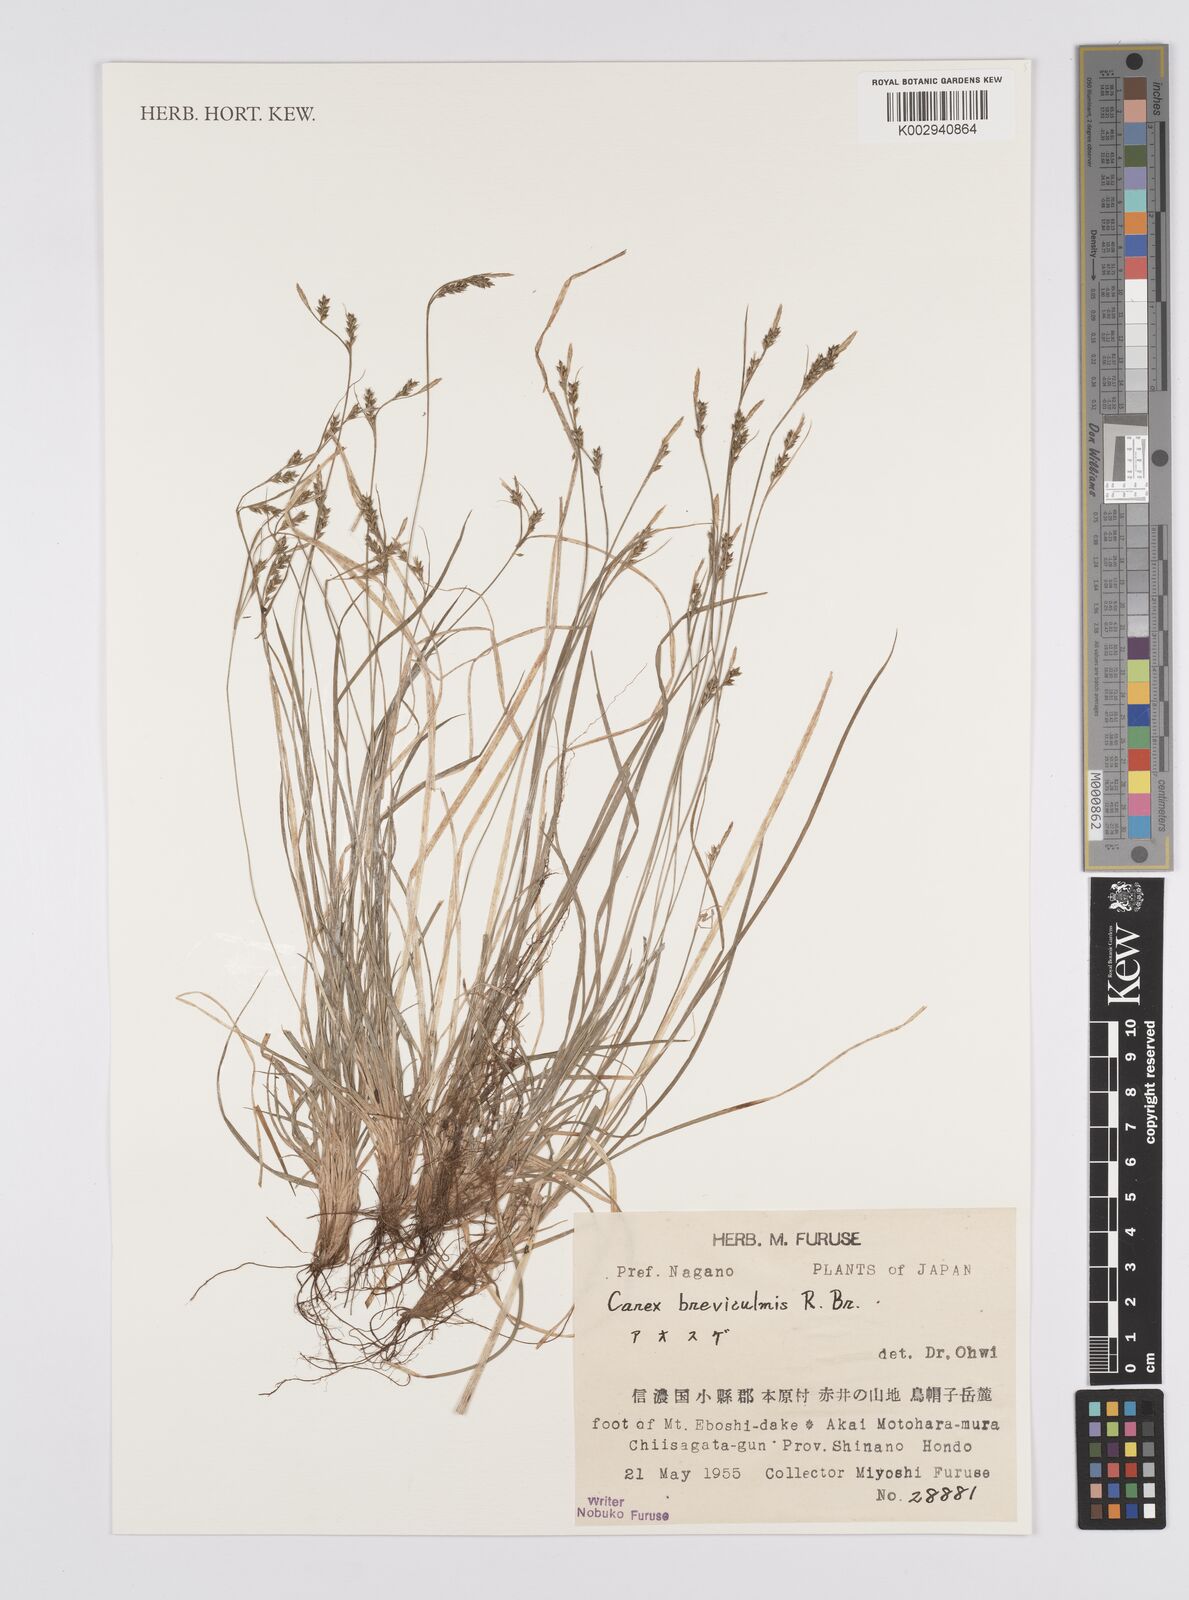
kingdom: Plantae
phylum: Tracheophyta
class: Liliopsida
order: Poales
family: Cyperaceae
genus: Carex
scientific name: Carex breviculmis
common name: Asian shortstem sedge
